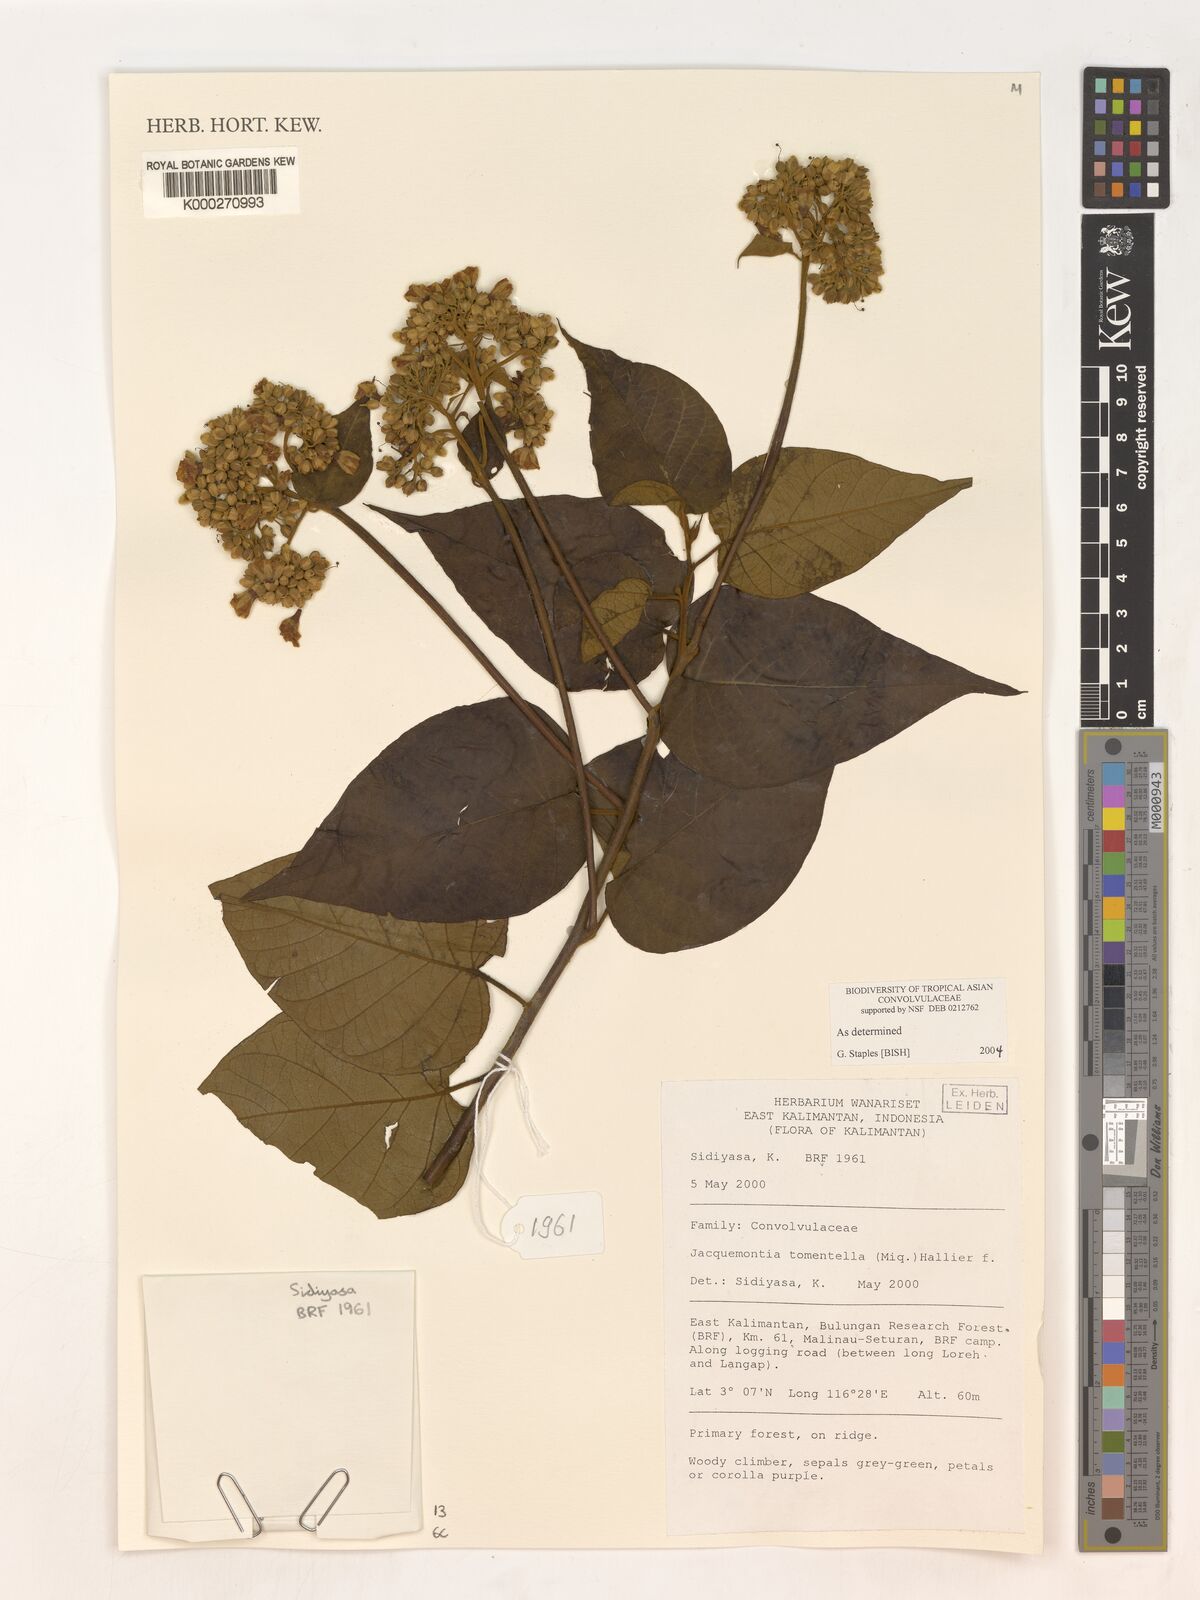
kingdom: Plantae
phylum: Tracheophyta
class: Magnoliopsida
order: Solanales
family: Convolvulaceae
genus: Jacquemontia
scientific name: Jacquemontia tomentella
